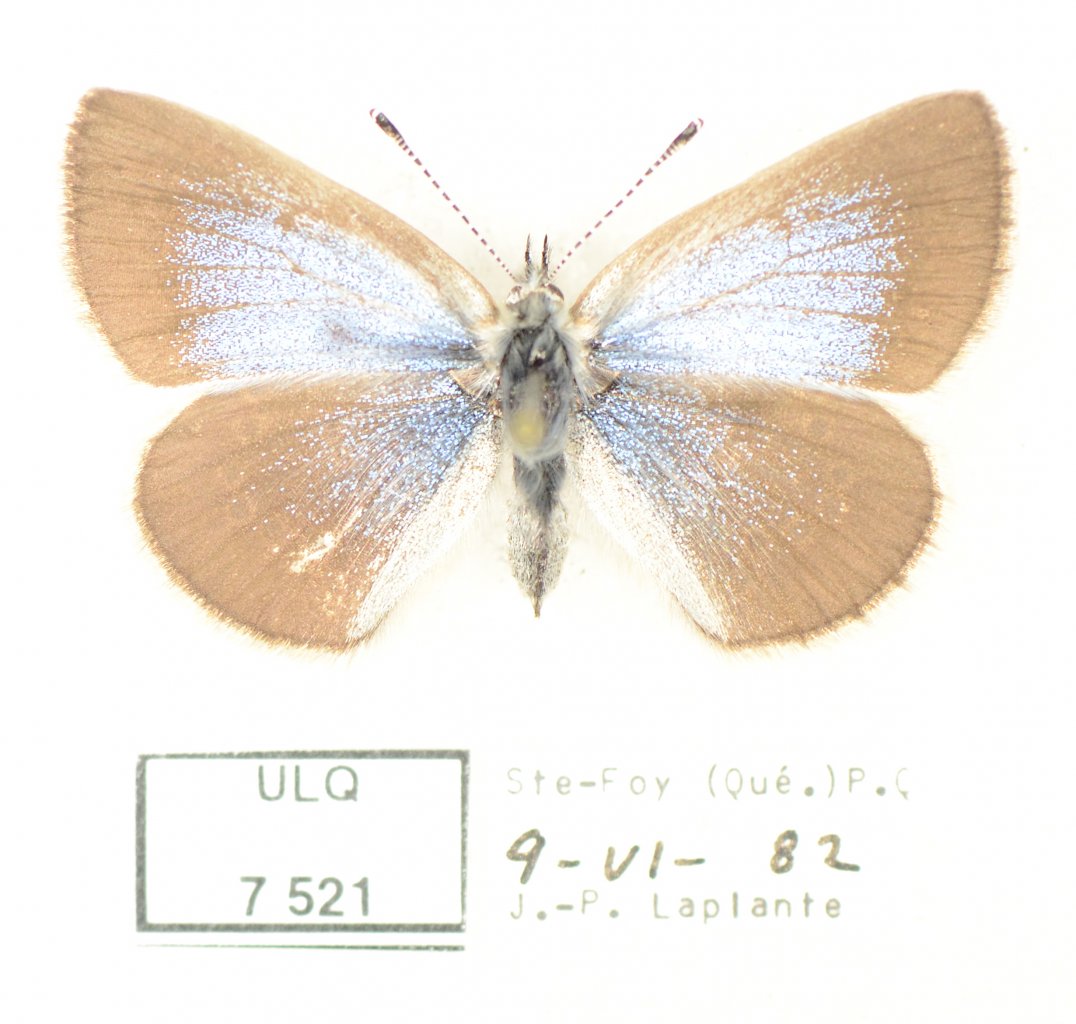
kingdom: Animalia
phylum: Arthropoda
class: Insecta
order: Lepidoptera
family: Lycaenidae
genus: Glaucopsyche
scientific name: Glaucopsyche lygdamus
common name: Silvery Blue
